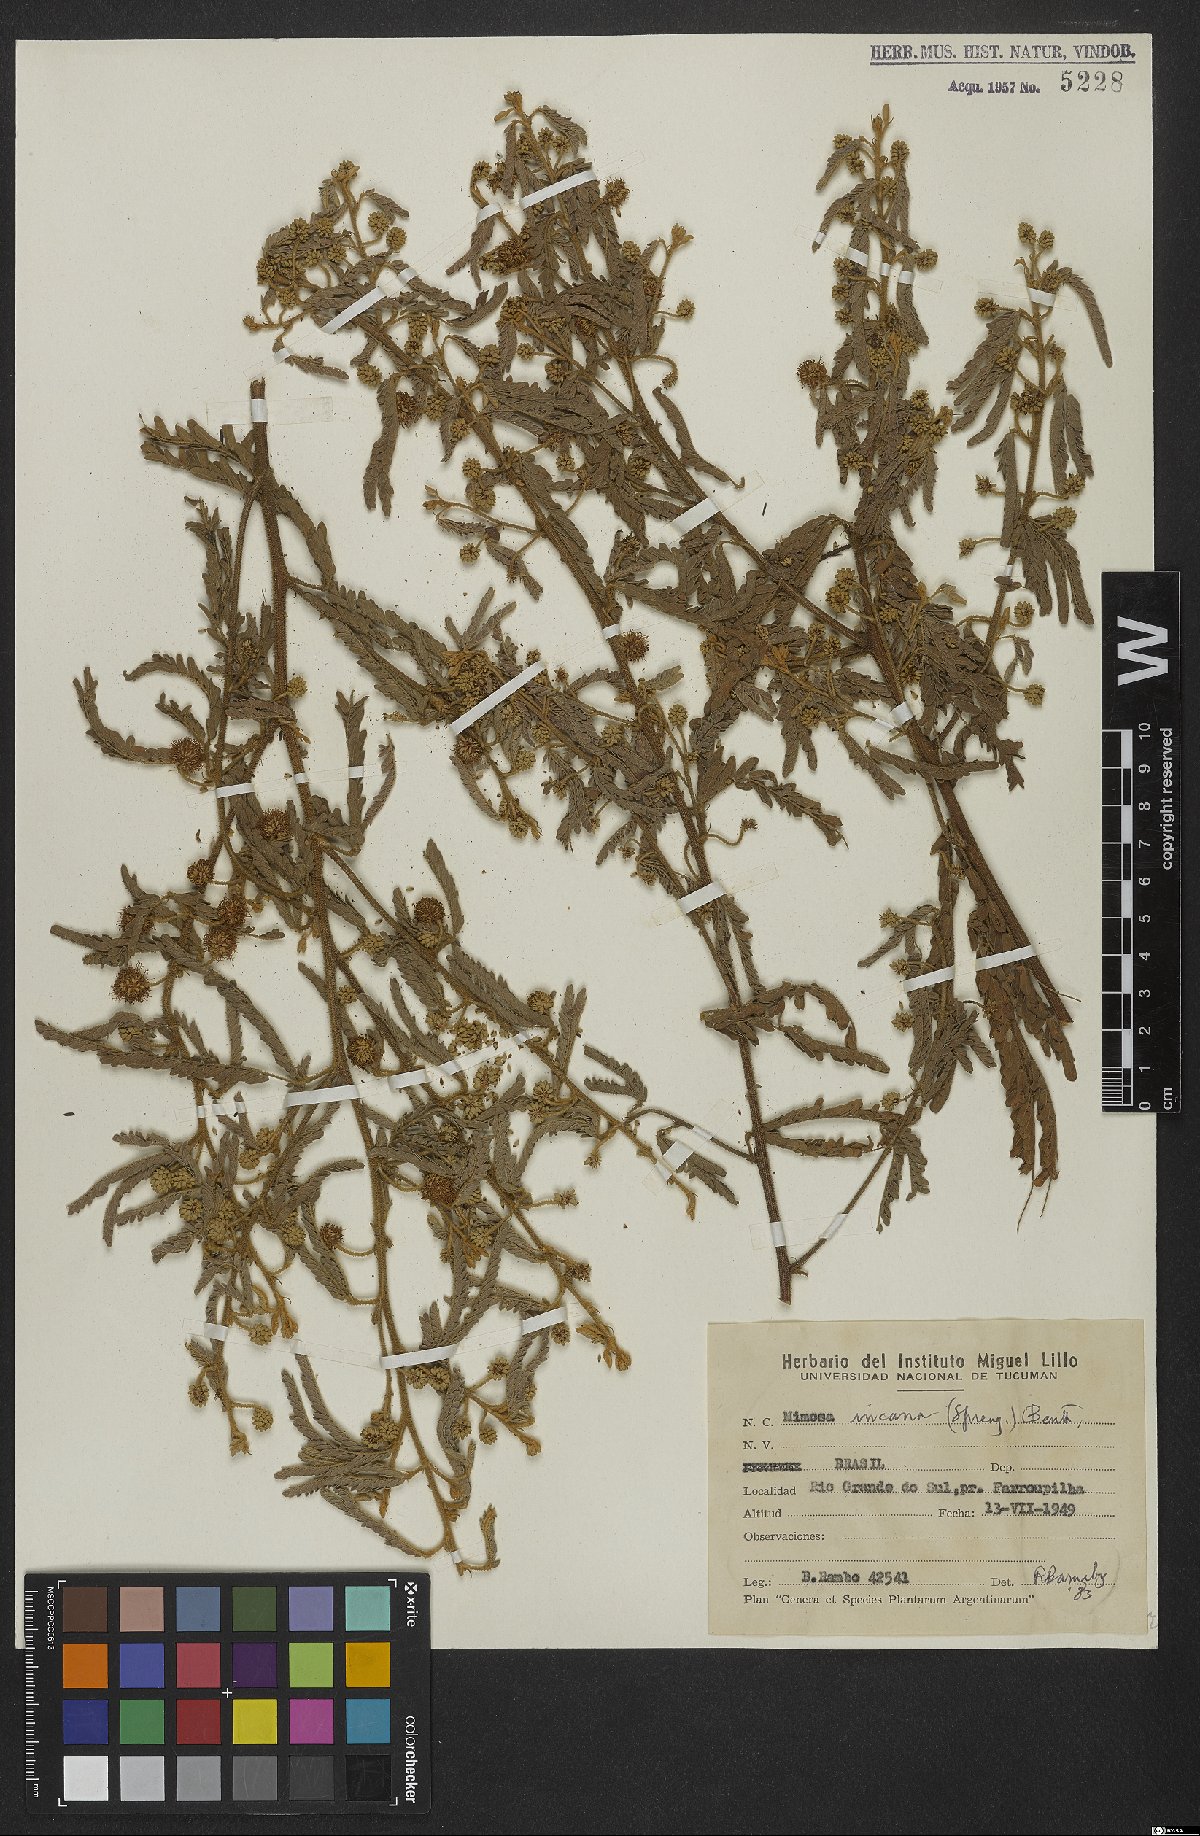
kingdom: Plantae
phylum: Tracheophyta
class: Magnoliopsida
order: Fabales
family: Fabaceae
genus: Mimosa
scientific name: Mimosa incana
